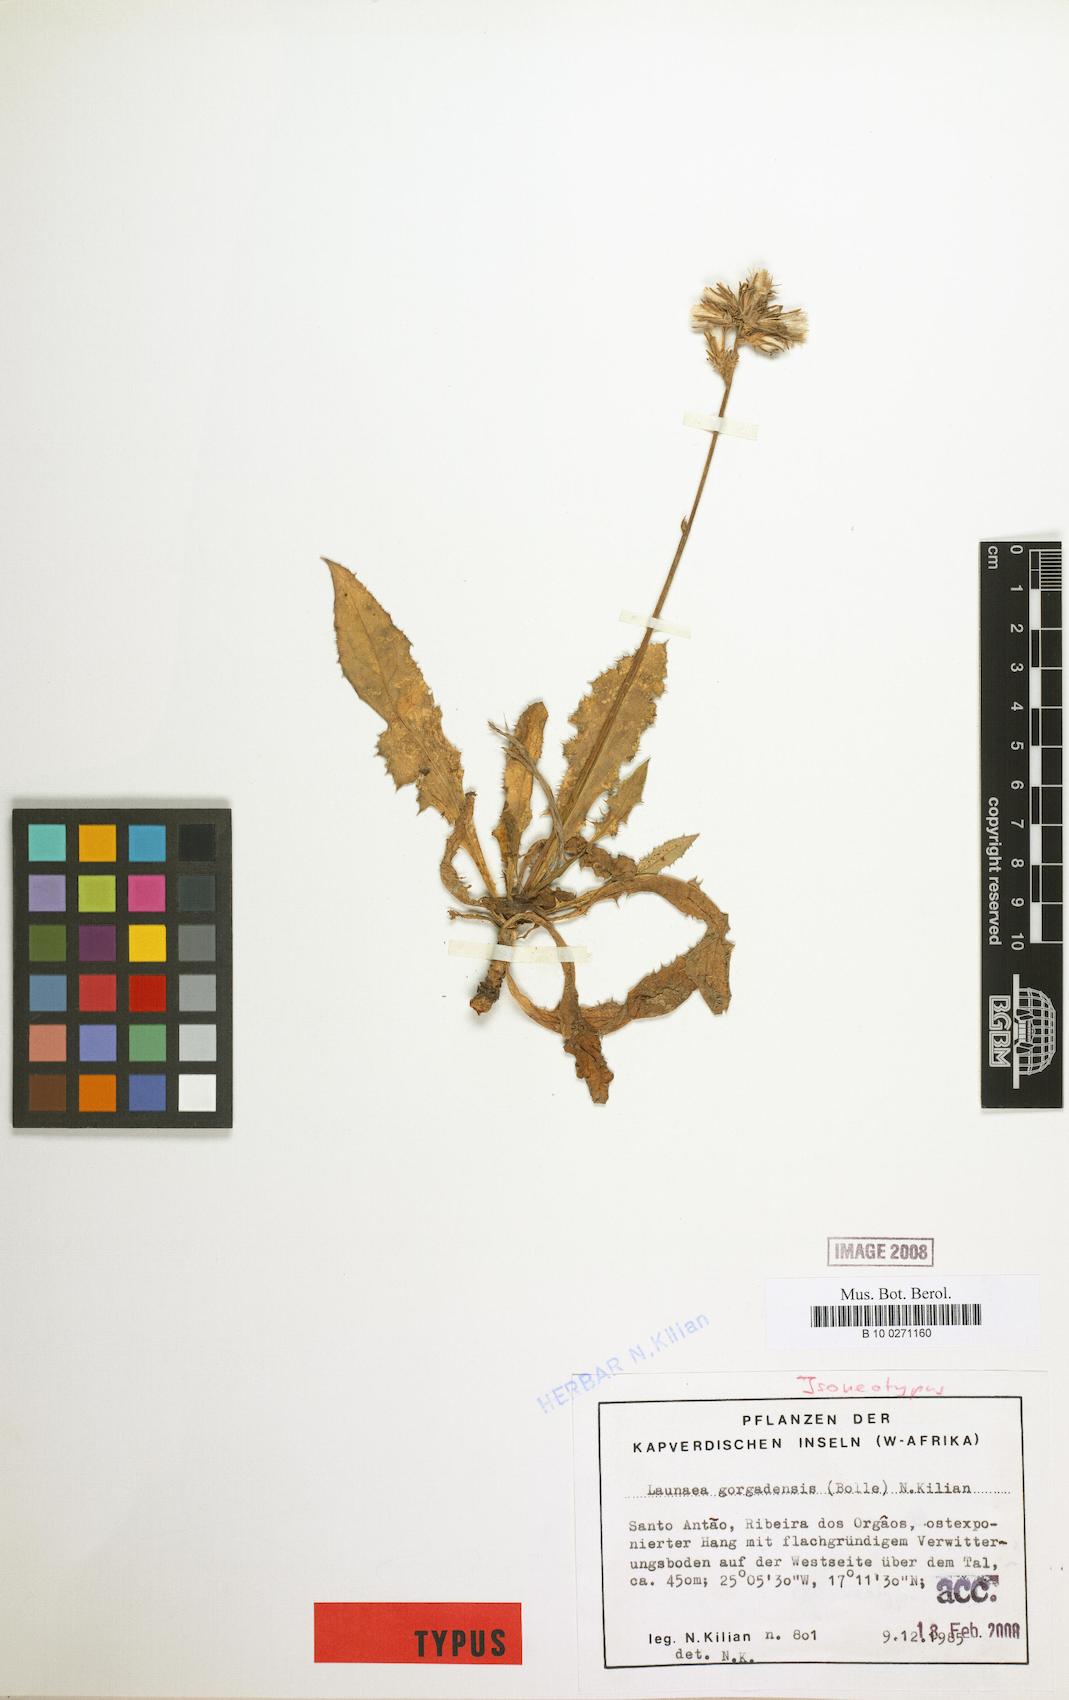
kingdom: Plantae
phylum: Tracheophyta
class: Magnoliopsida
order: Asterales
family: Asteraceae
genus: Launaea
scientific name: Launaea gorgadensis
